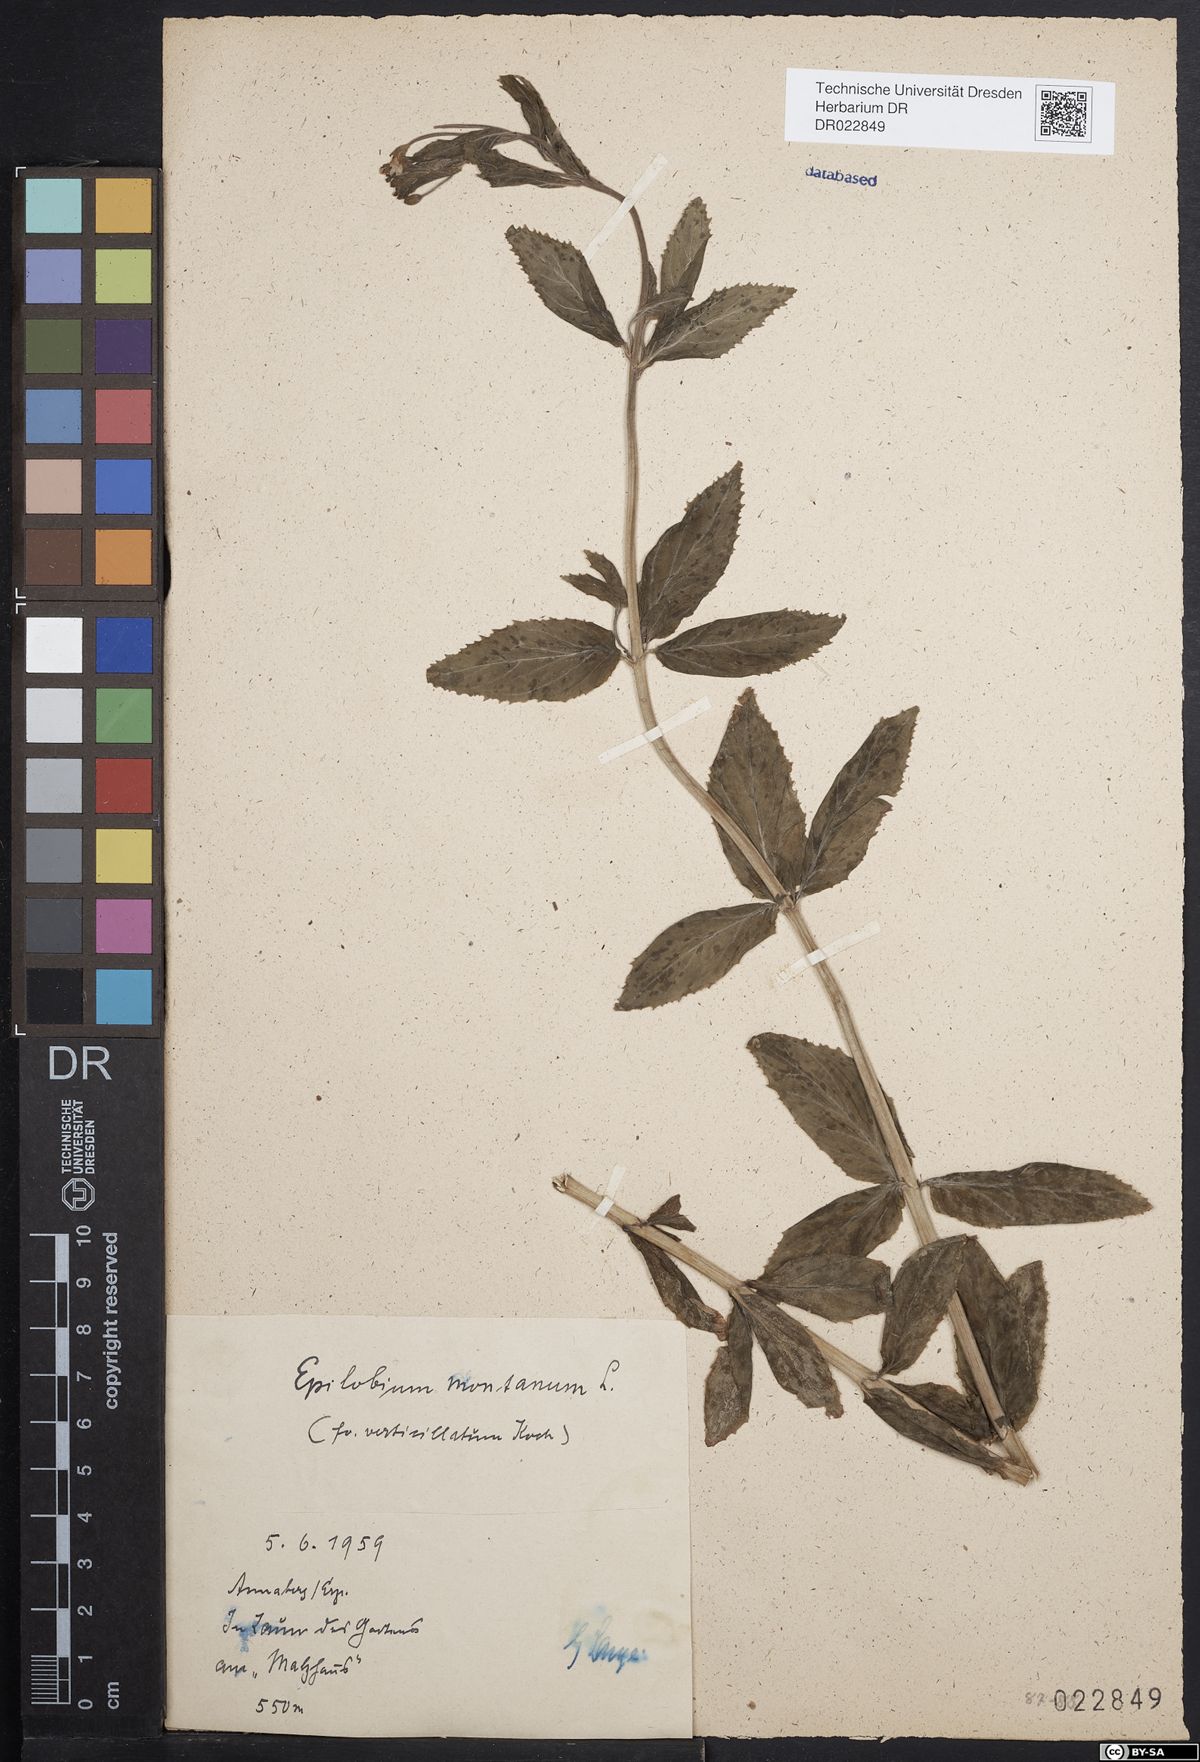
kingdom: Plantae
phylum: Tracheophyta
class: Magnoliopsida
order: Myrtales
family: Onagraceae
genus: Epilobium
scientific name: Epilobium montanum
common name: Broad-leaved willowherb
